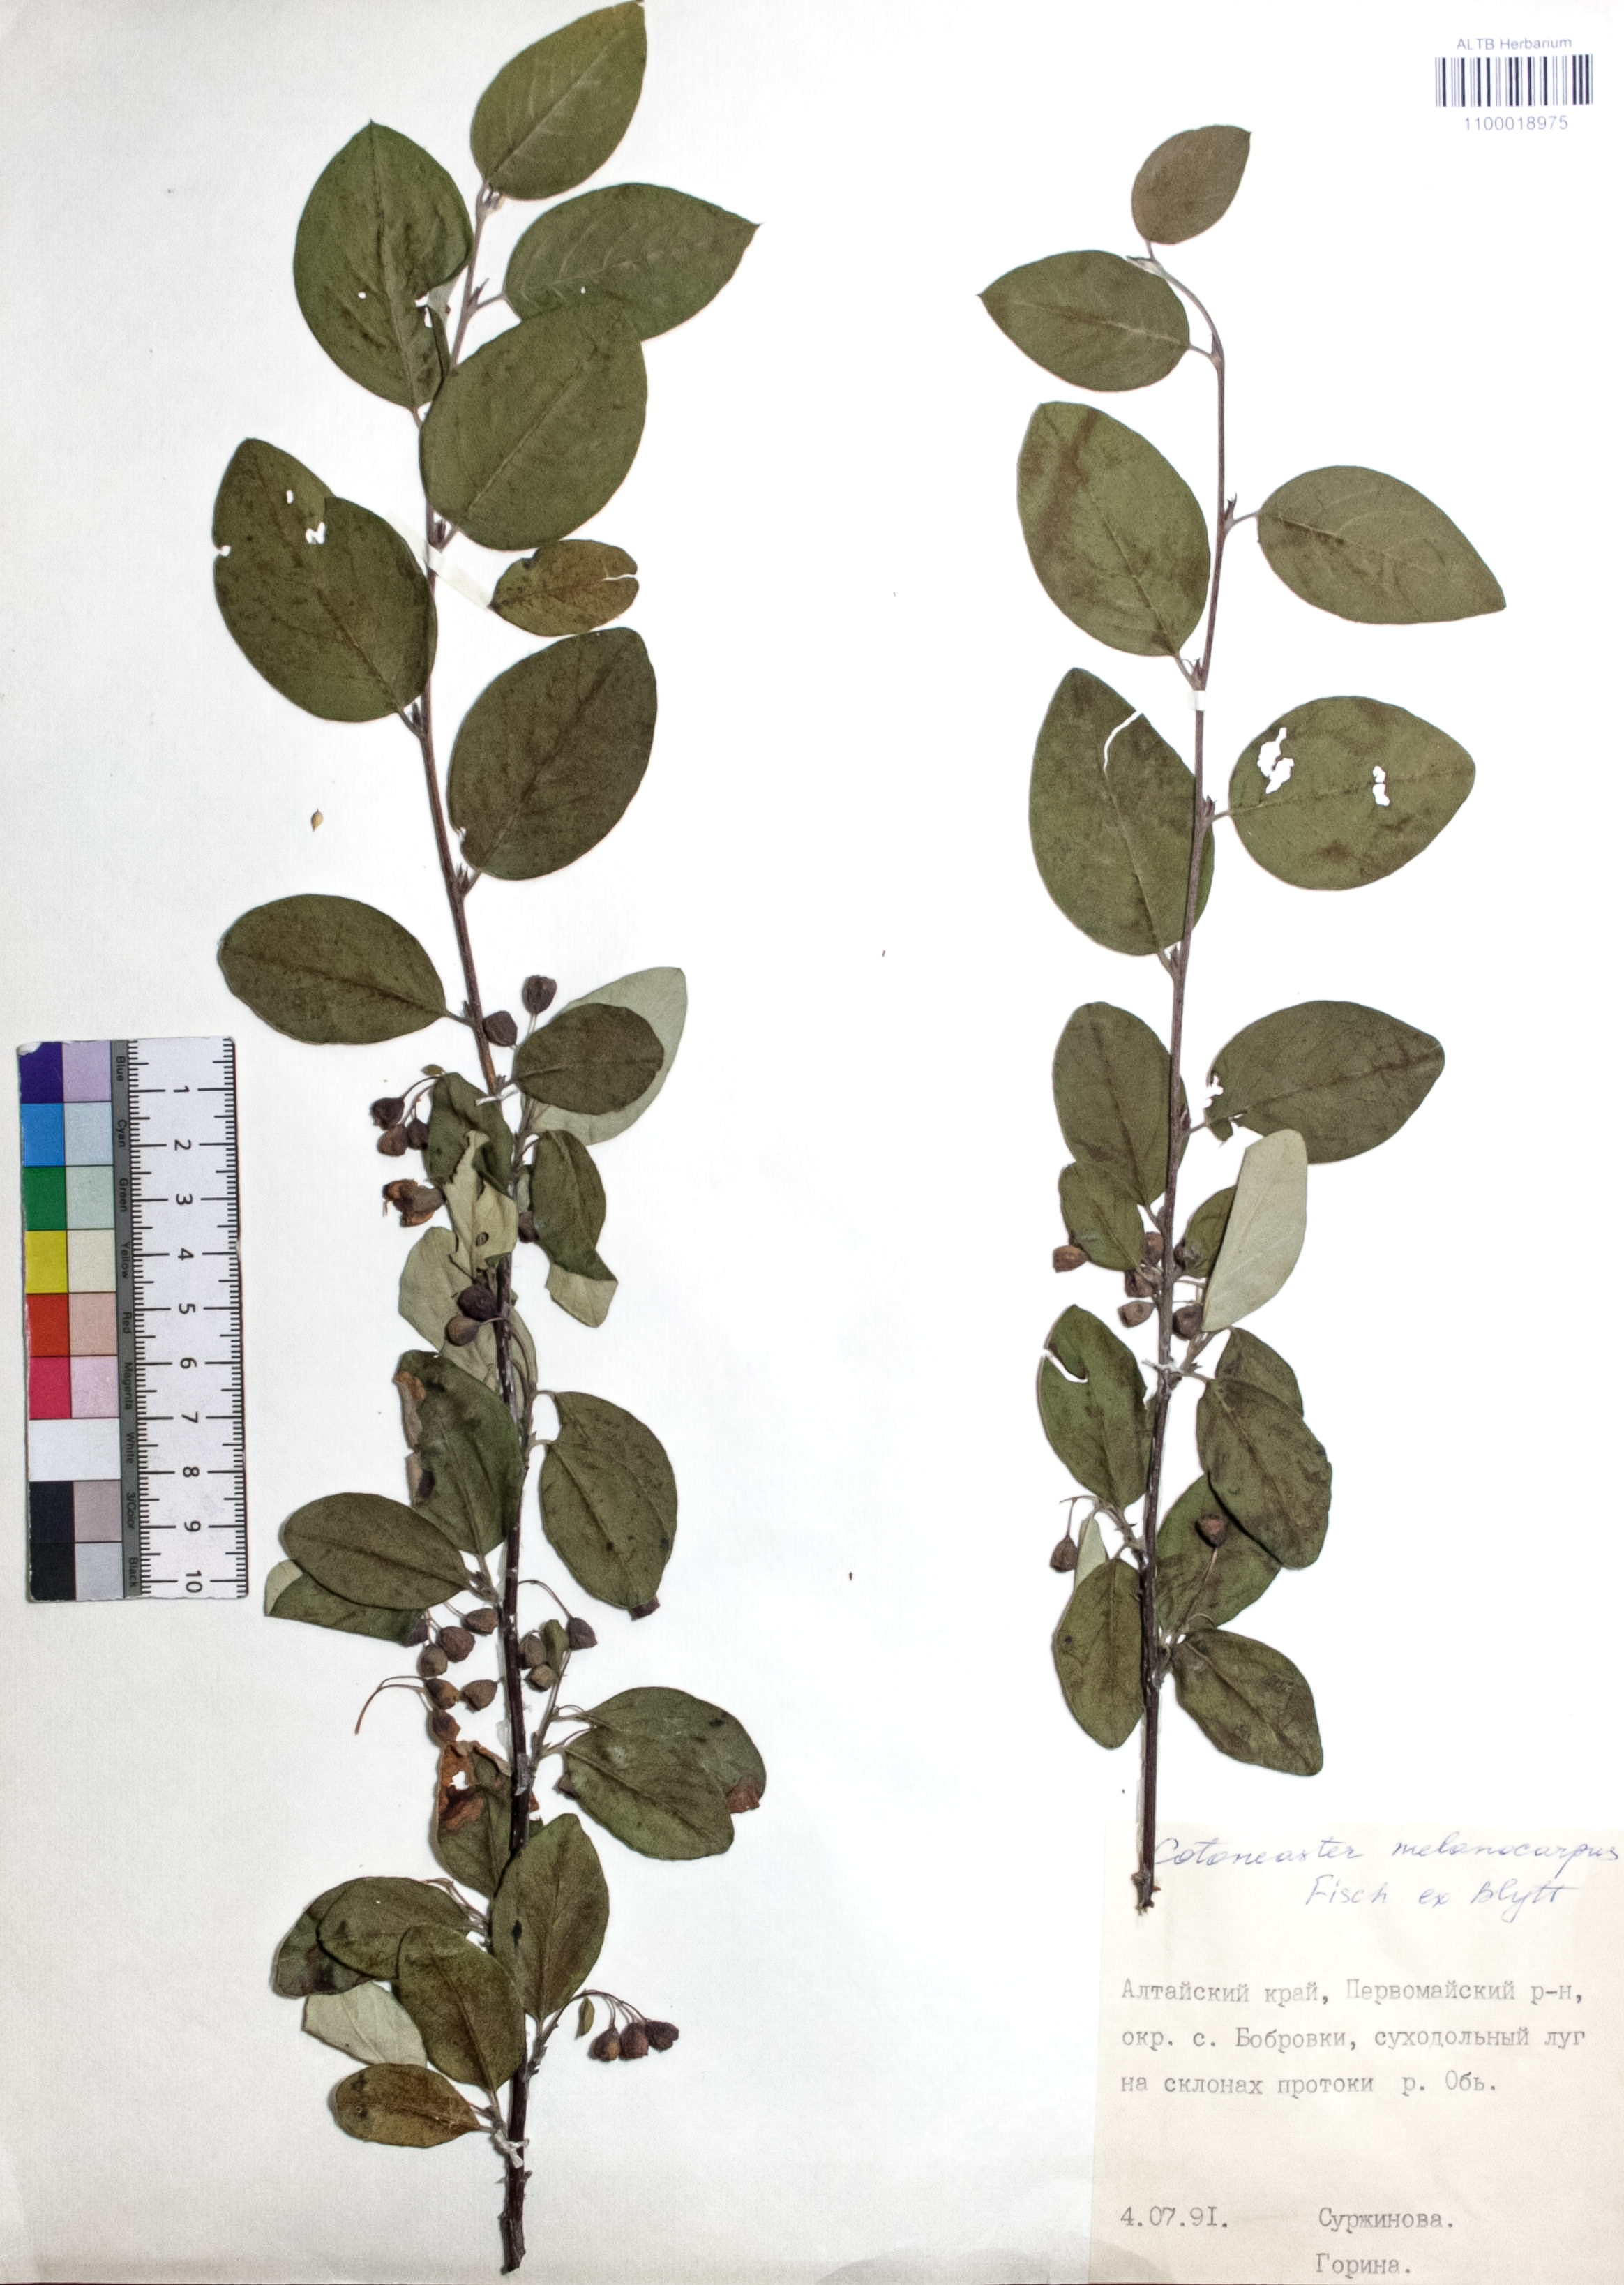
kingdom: Plantae
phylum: Tracheophyta
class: Magnoliopsida
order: Rosales
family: Rosaceae
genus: Cotoneaster
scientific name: Cotoneaster niger
